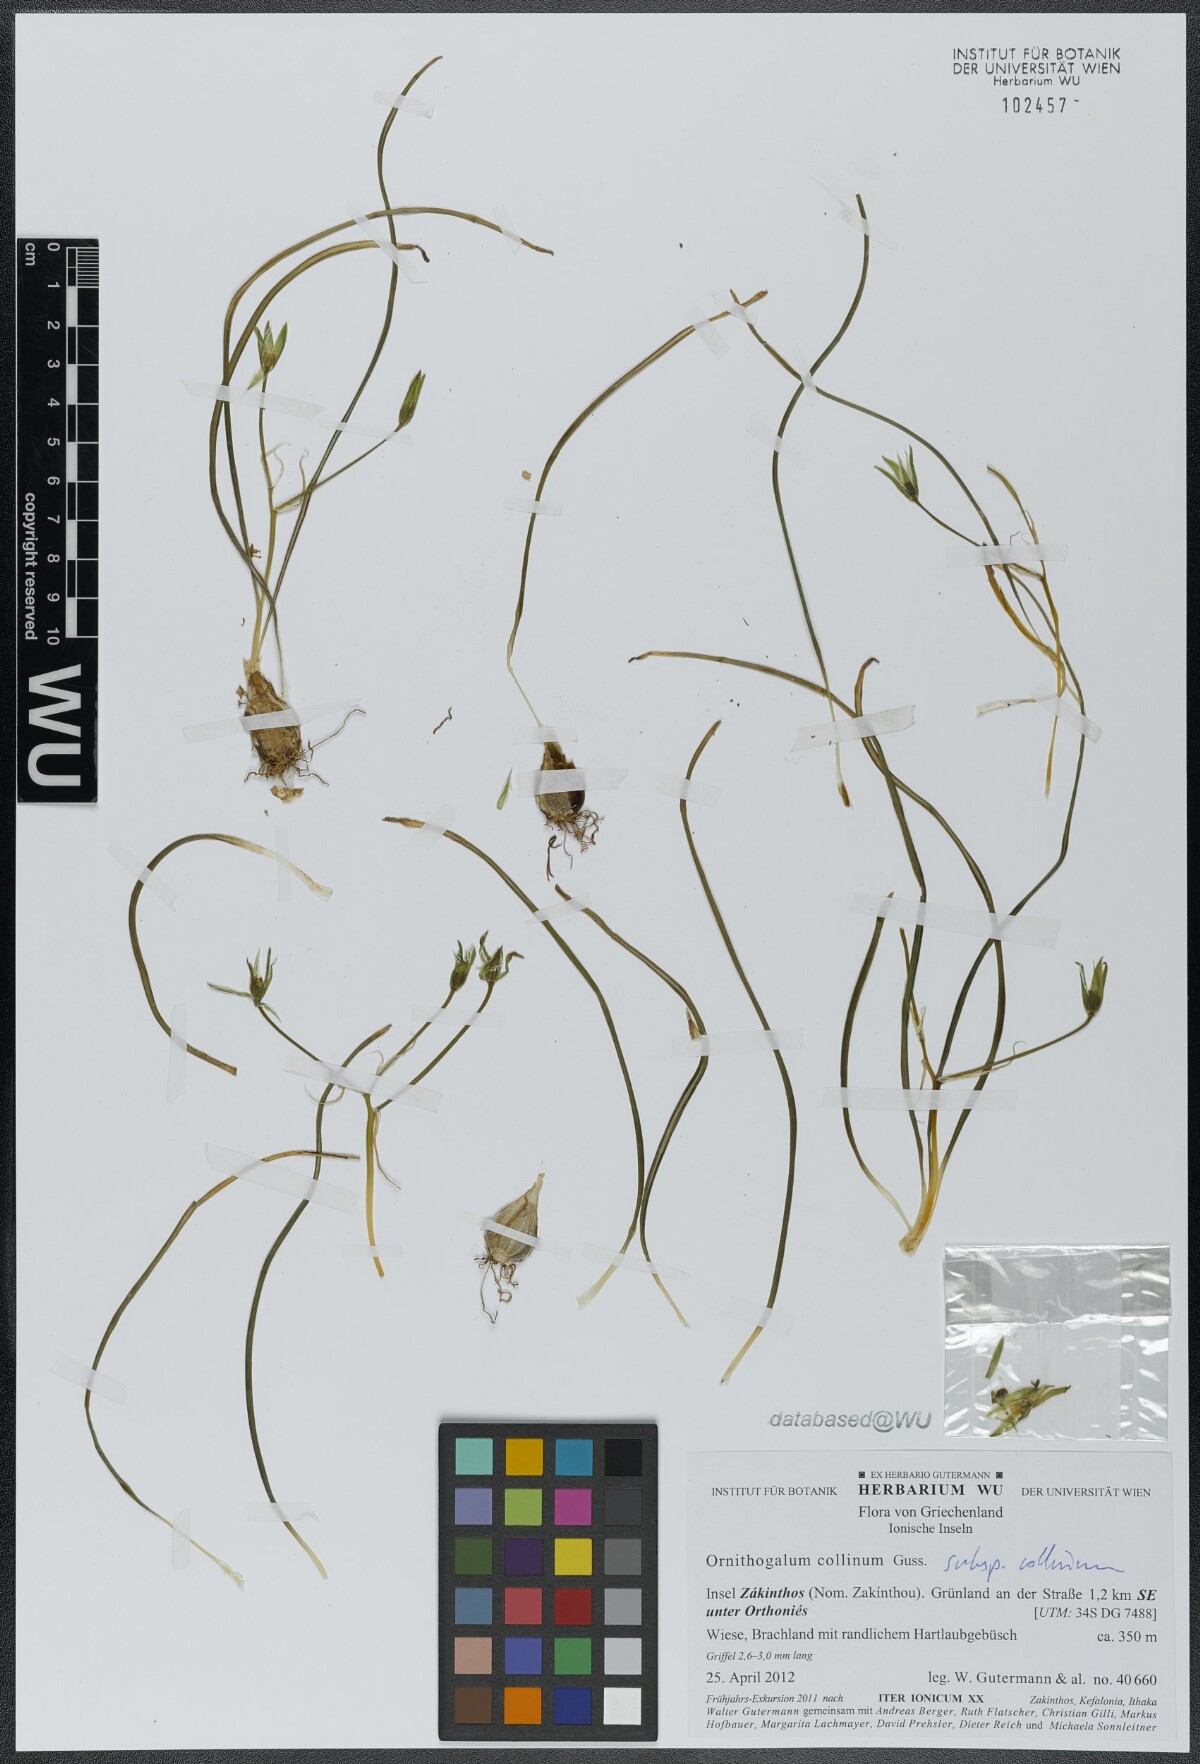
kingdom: Plantae
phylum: Tracheophyta
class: Liliopsida
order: Asparagales
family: Asparagaceae
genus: Ornithogalum
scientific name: Ornithogalum collinum
